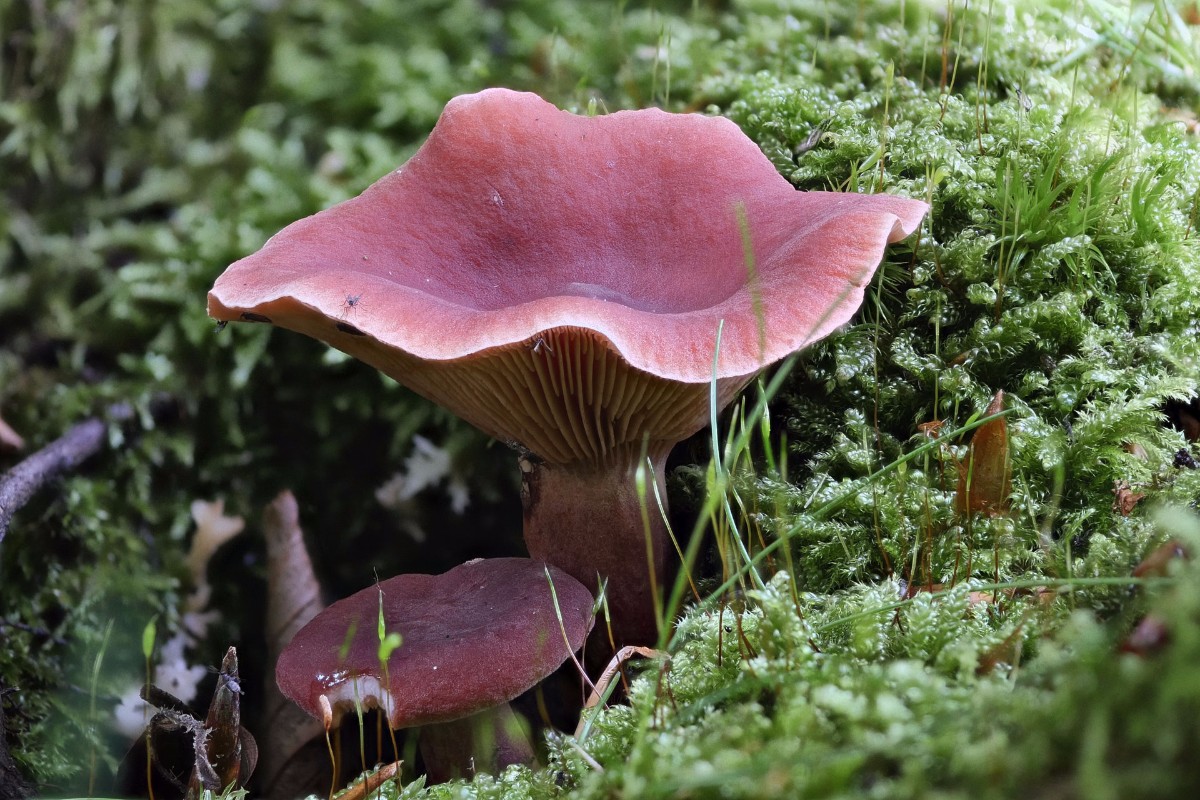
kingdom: Fungi
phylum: Basidiomycota
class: Agaricomycetes
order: Russulales
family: Russulaceae
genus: Lactarius
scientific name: Lactarius camphoratus
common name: kamfer-mælkehat
